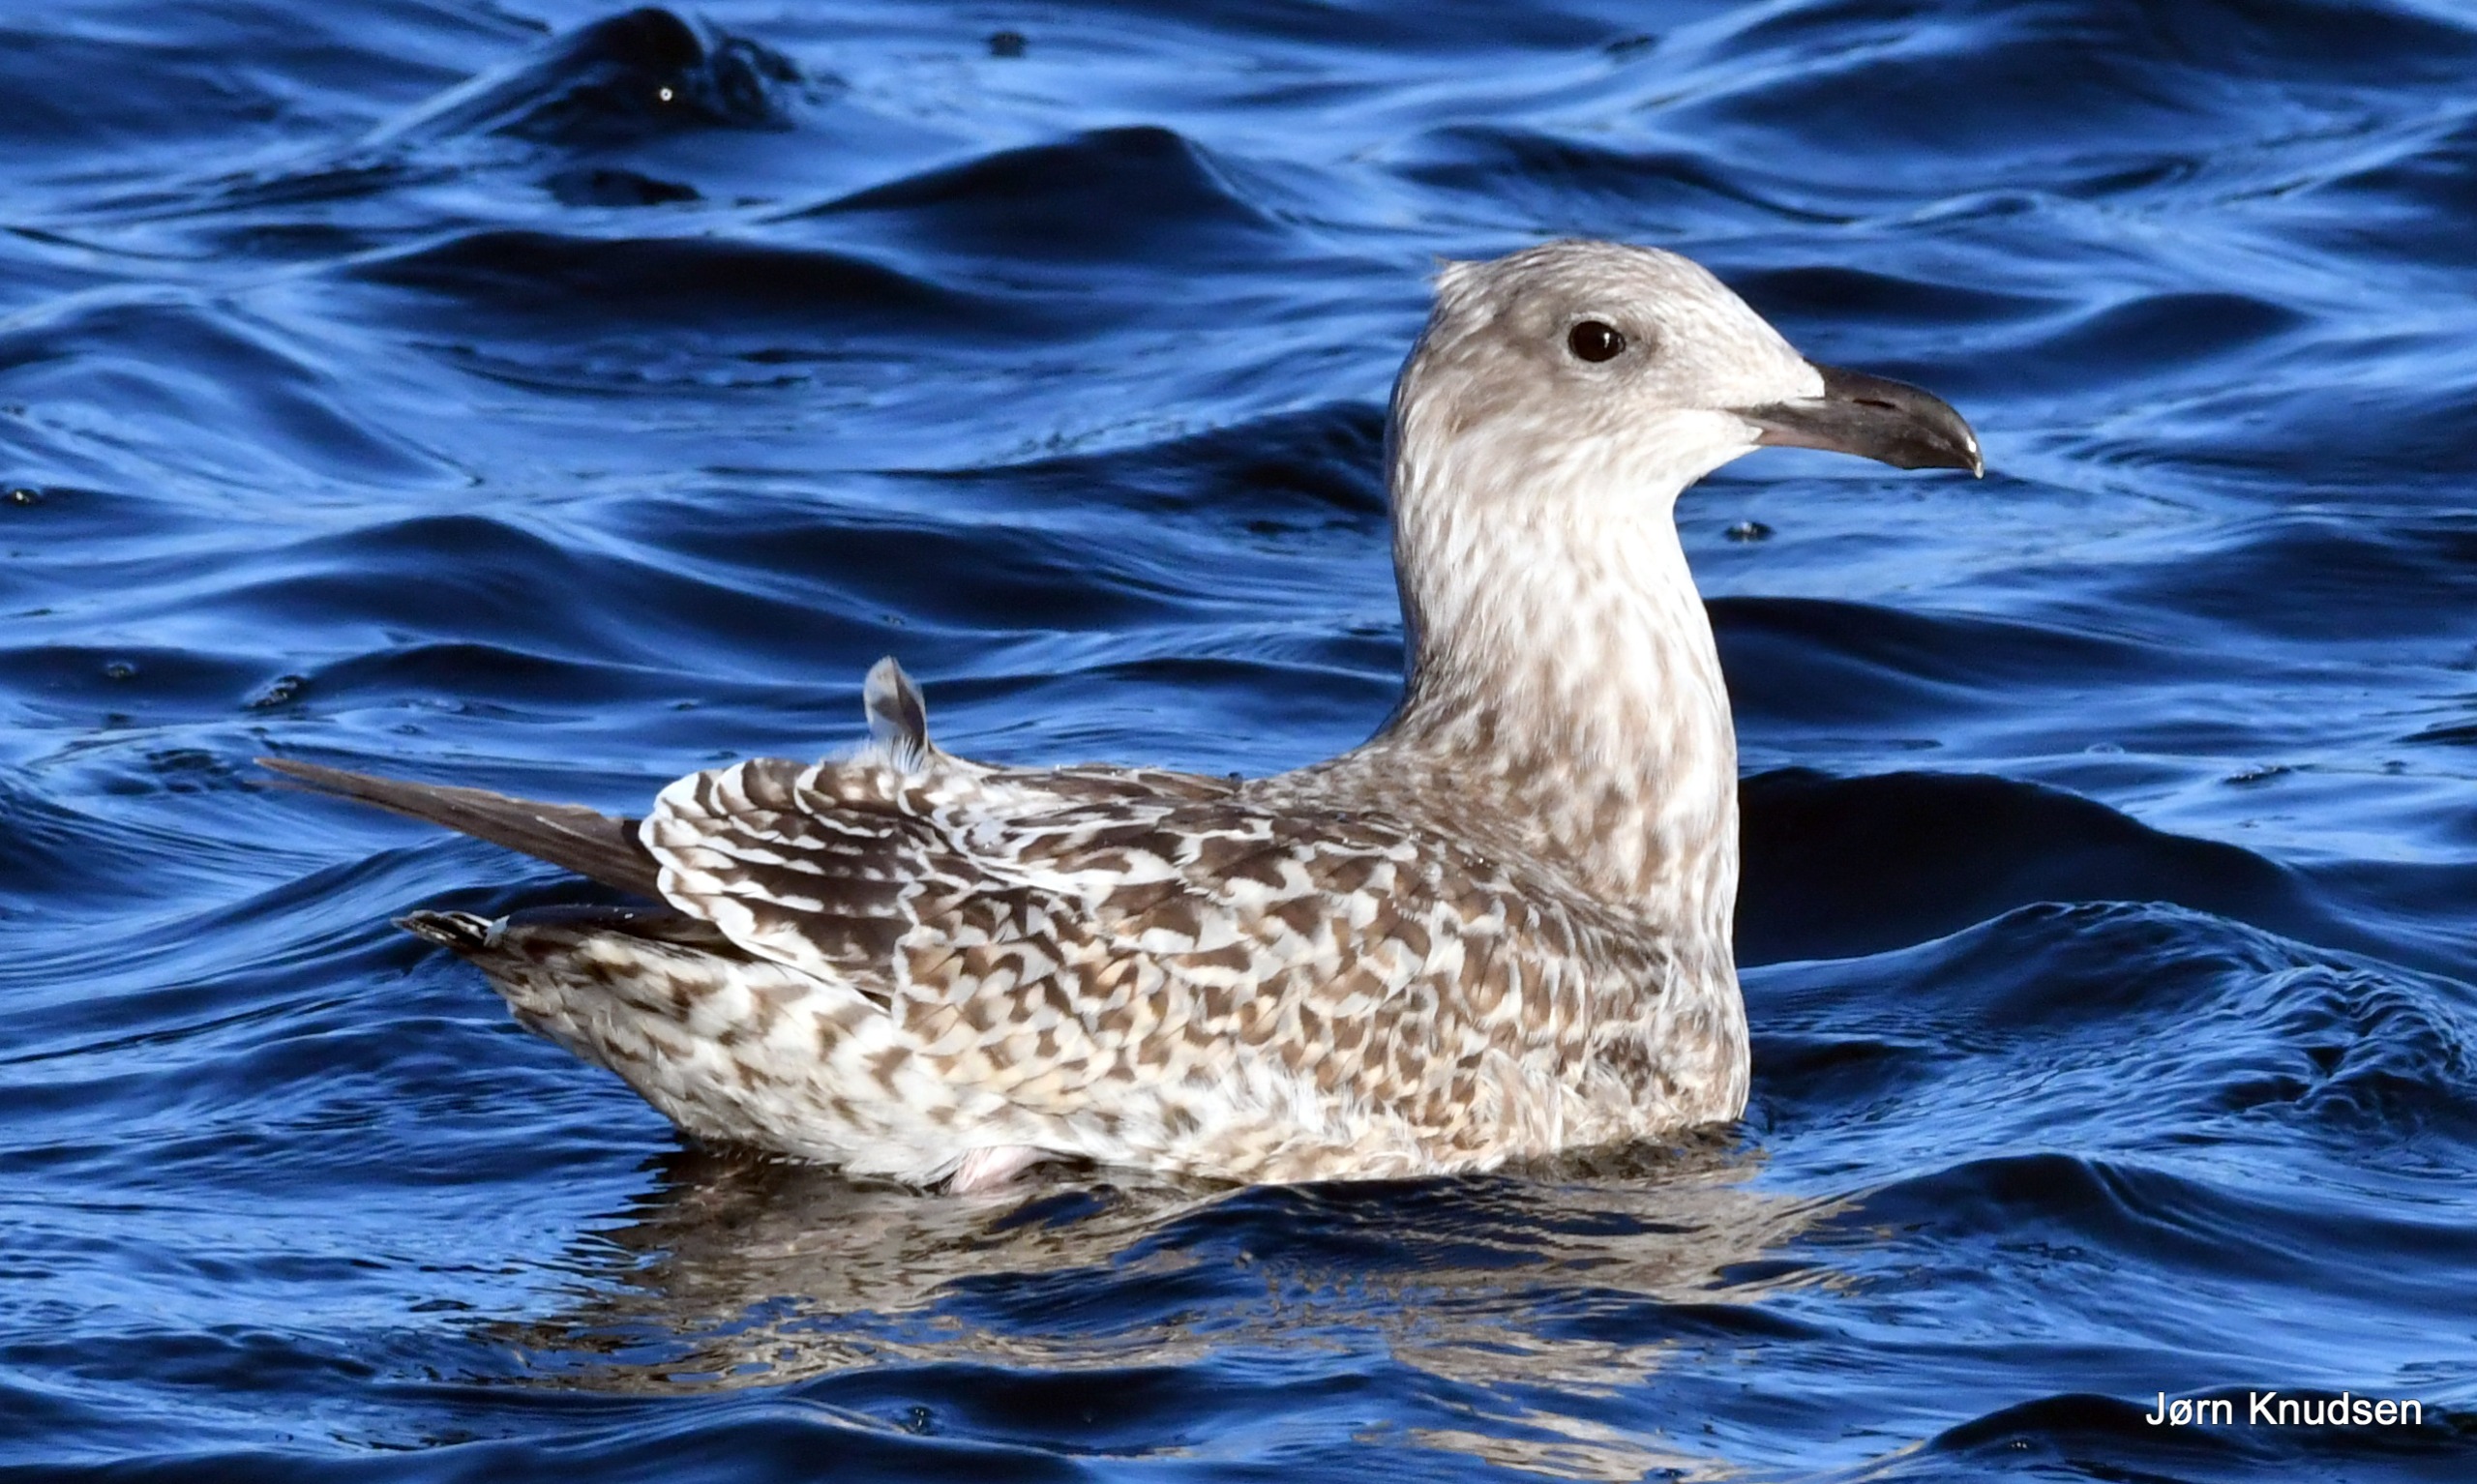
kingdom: Animalia
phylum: Chordata
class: Aves
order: Charadriiformes
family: Laridae
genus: Larus
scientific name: Larus argentatus
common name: Sølvmåge
